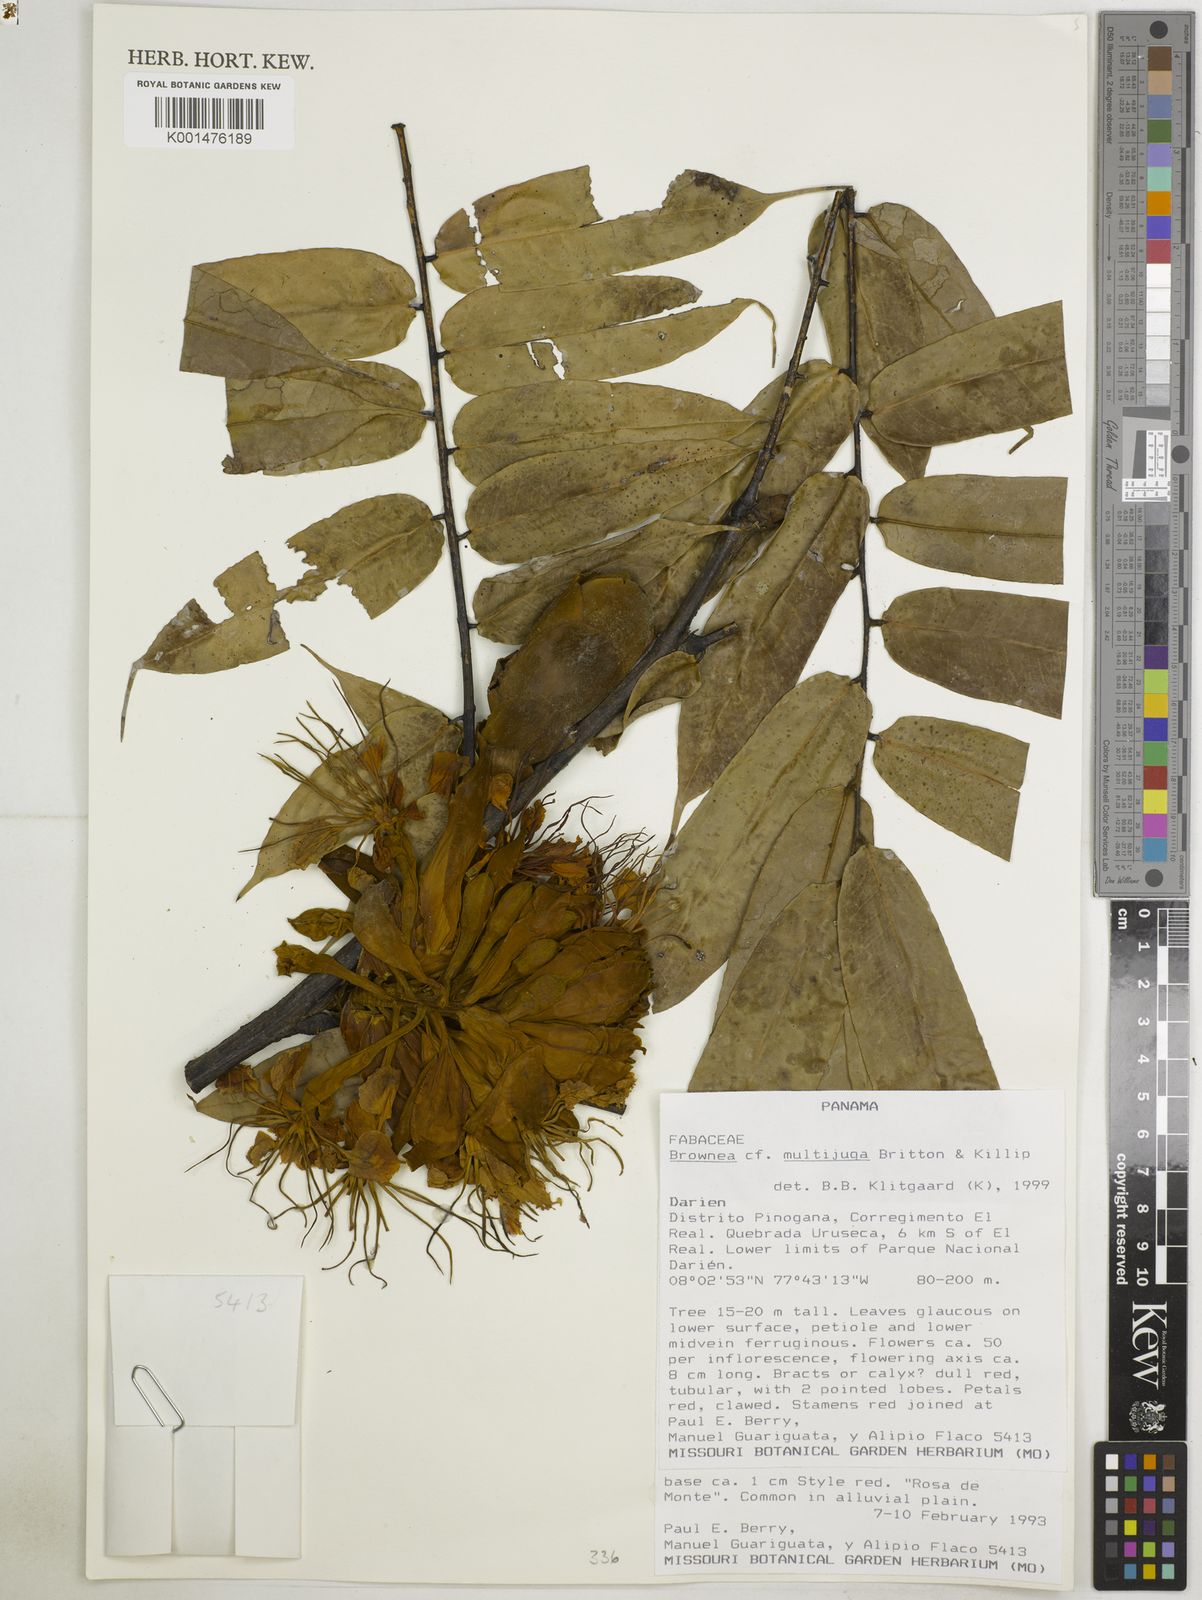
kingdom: Plantae
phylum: Tracheophyta
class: Magnoliopsida
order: Fabales
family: Fabaceae
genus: Brownea
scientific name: Brownea multijuga
